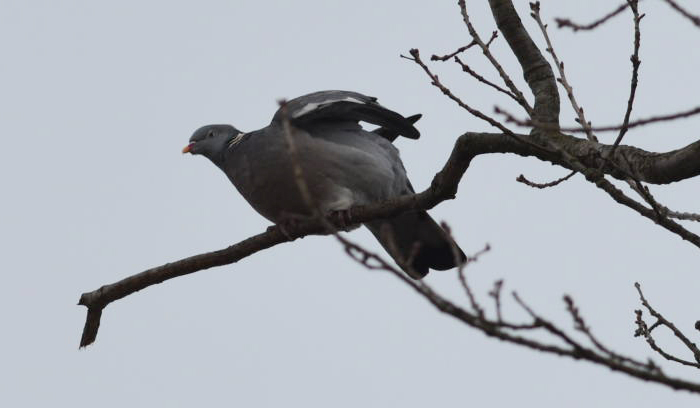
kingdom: Animalia
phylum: Chordata
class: Aves
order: Columbiformes
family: Columbidae
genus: Streptopelia
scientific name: Streptopelia decaocto
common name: Eurasian collared dove
